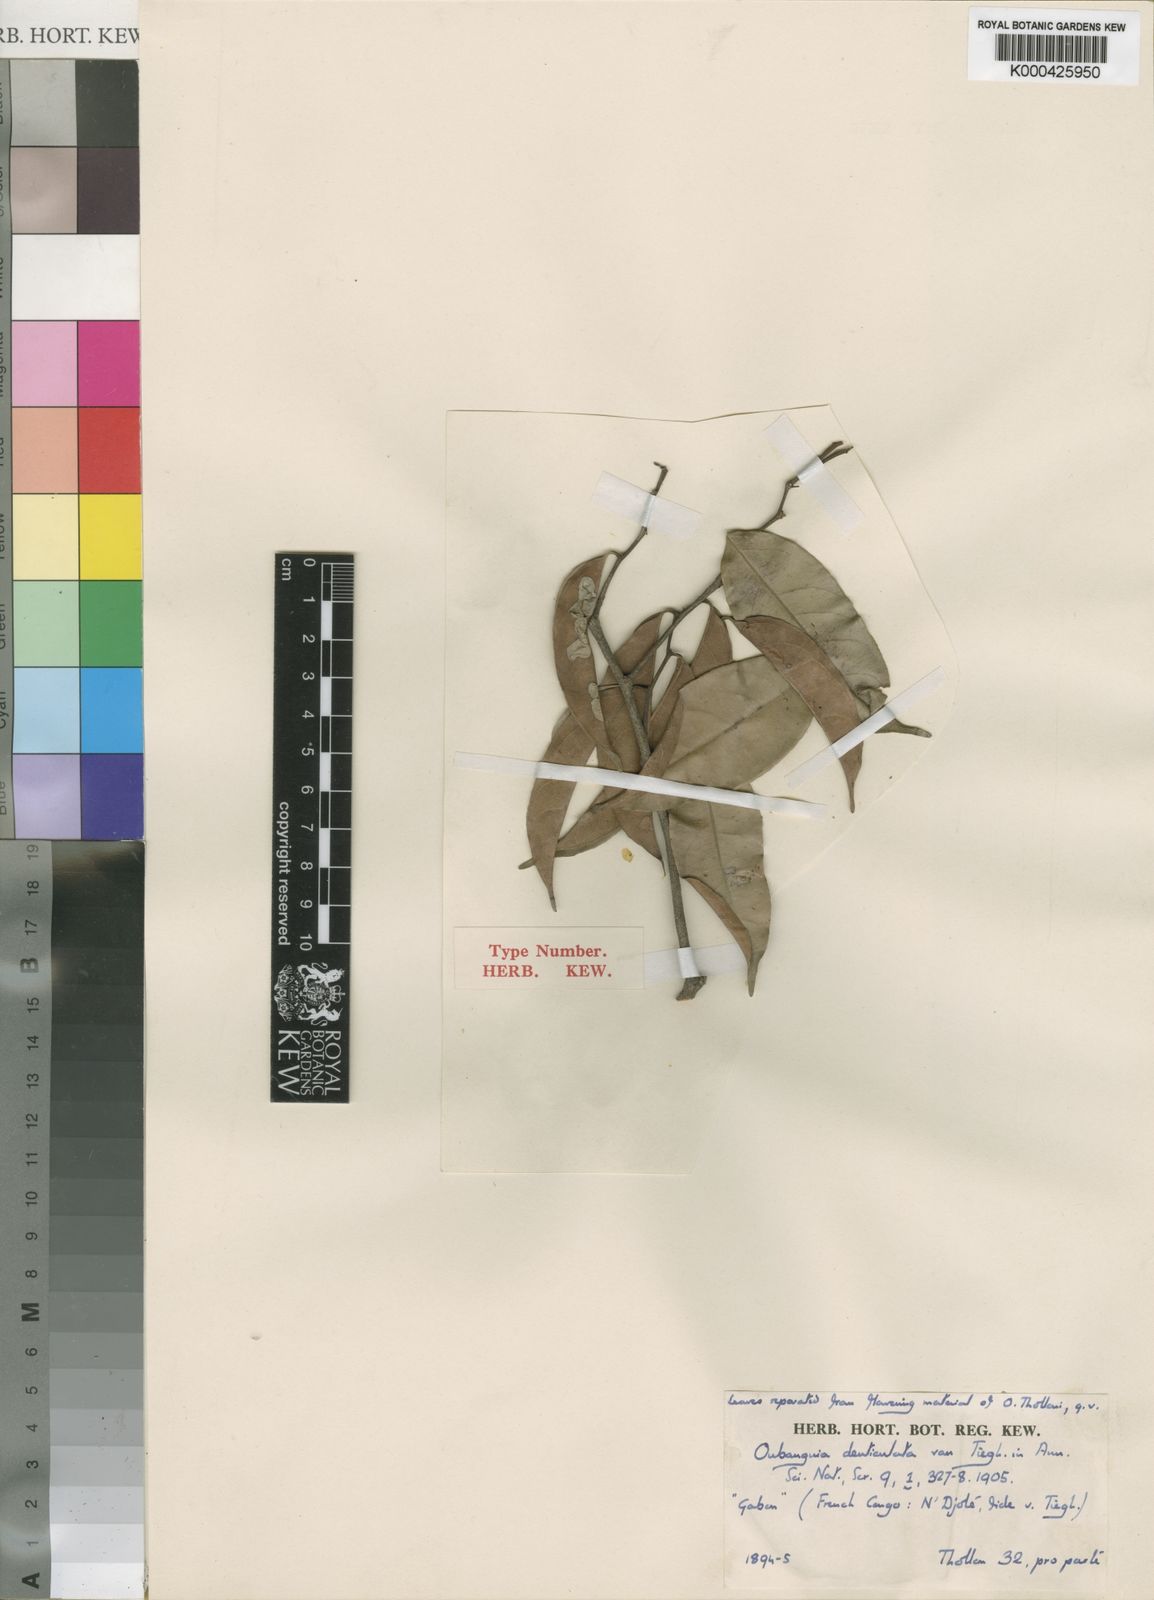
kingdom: Plantae
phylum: Tracheophyta
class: Magnoliopsida
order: Ericales
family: Lecythidaceae
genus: Oubanguia
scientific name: Oubanguia africana
